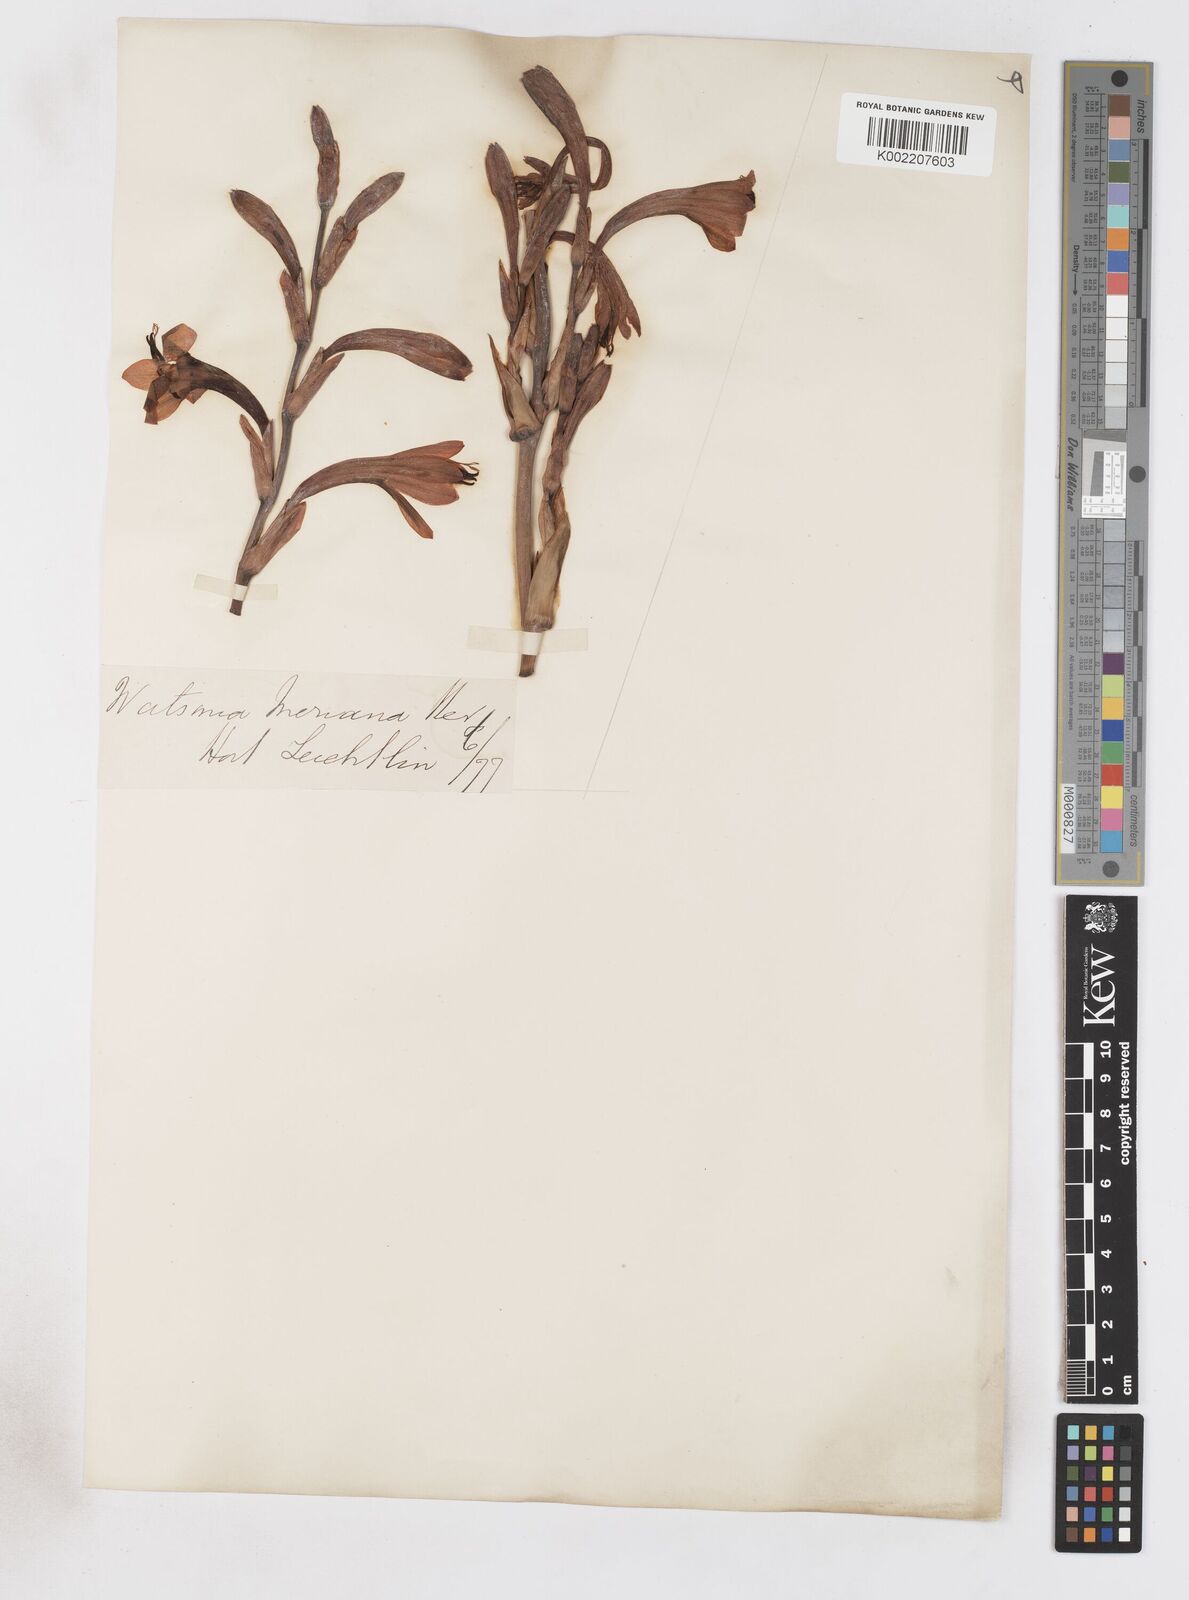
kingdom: Plantae
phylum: Tracheophyta
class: Liliopsida
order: Asparagales
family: Iridaceae
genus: Watsonia
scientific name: Watsonia meriana
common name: Bulbil bugle-lily
